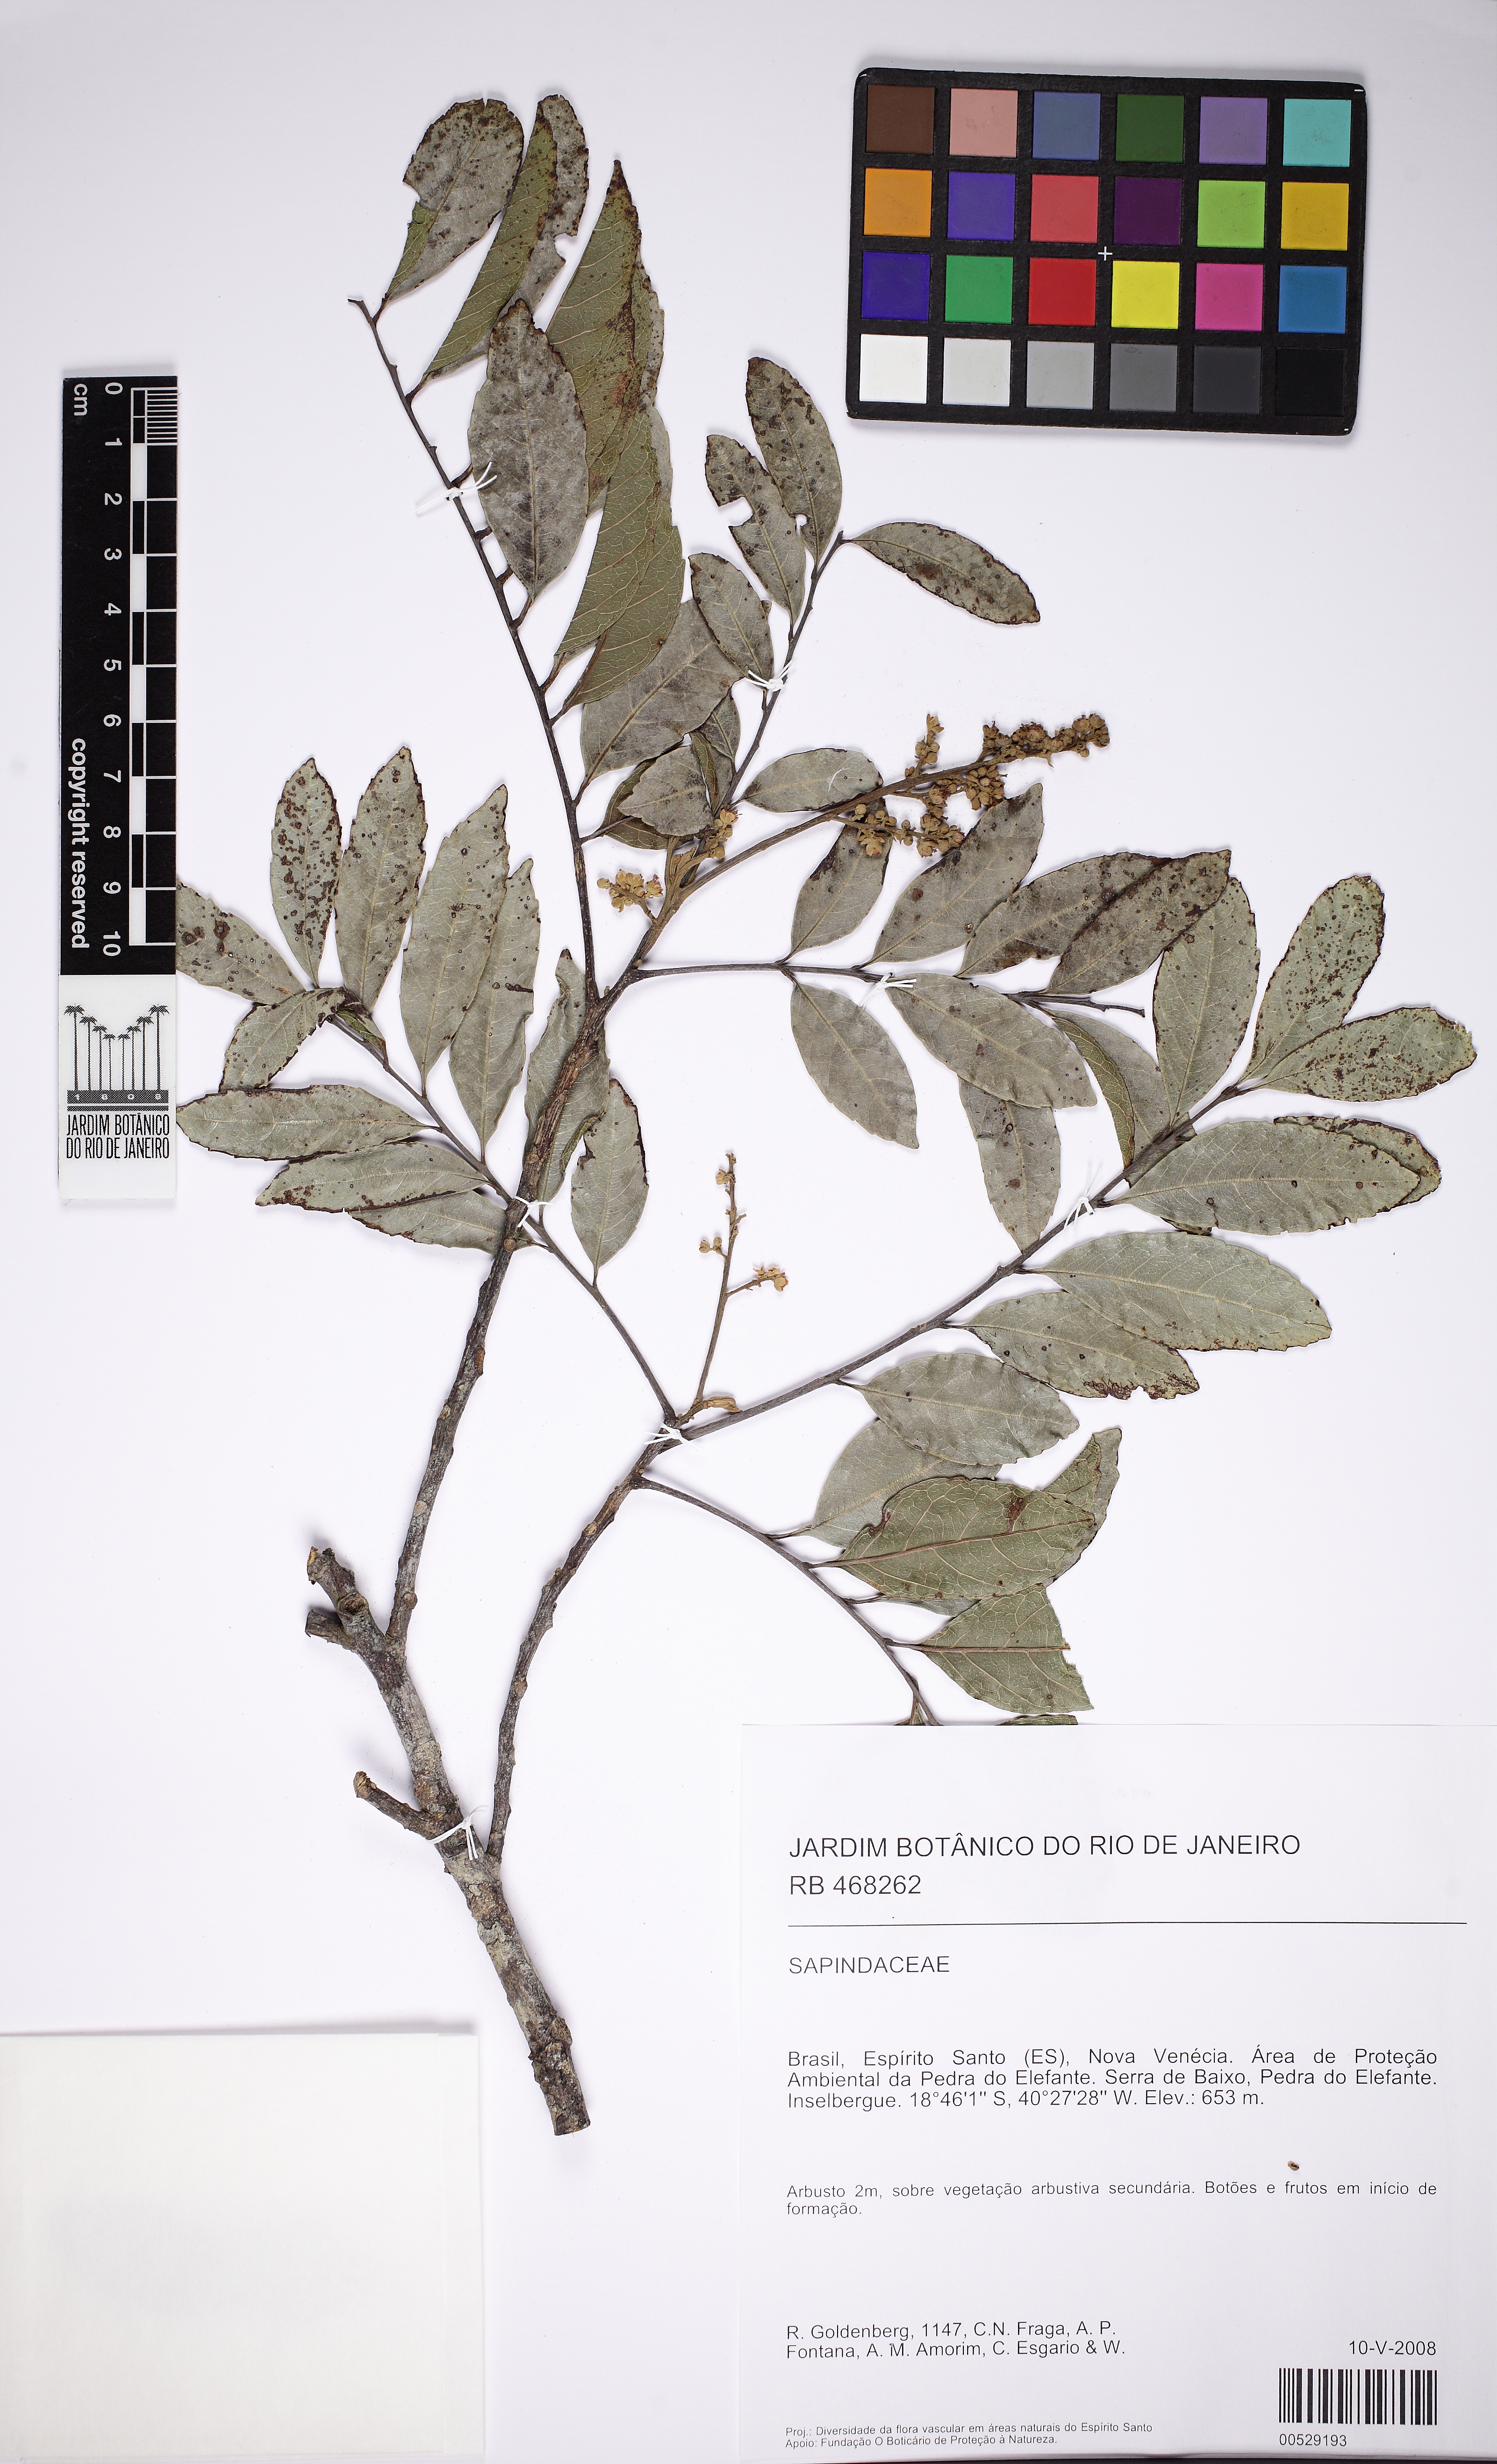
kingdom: Plantae
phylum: Tracheophyta
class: Magnoliopsida
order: Sapindales
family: Sapindaceae
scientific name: Sapindaceae
